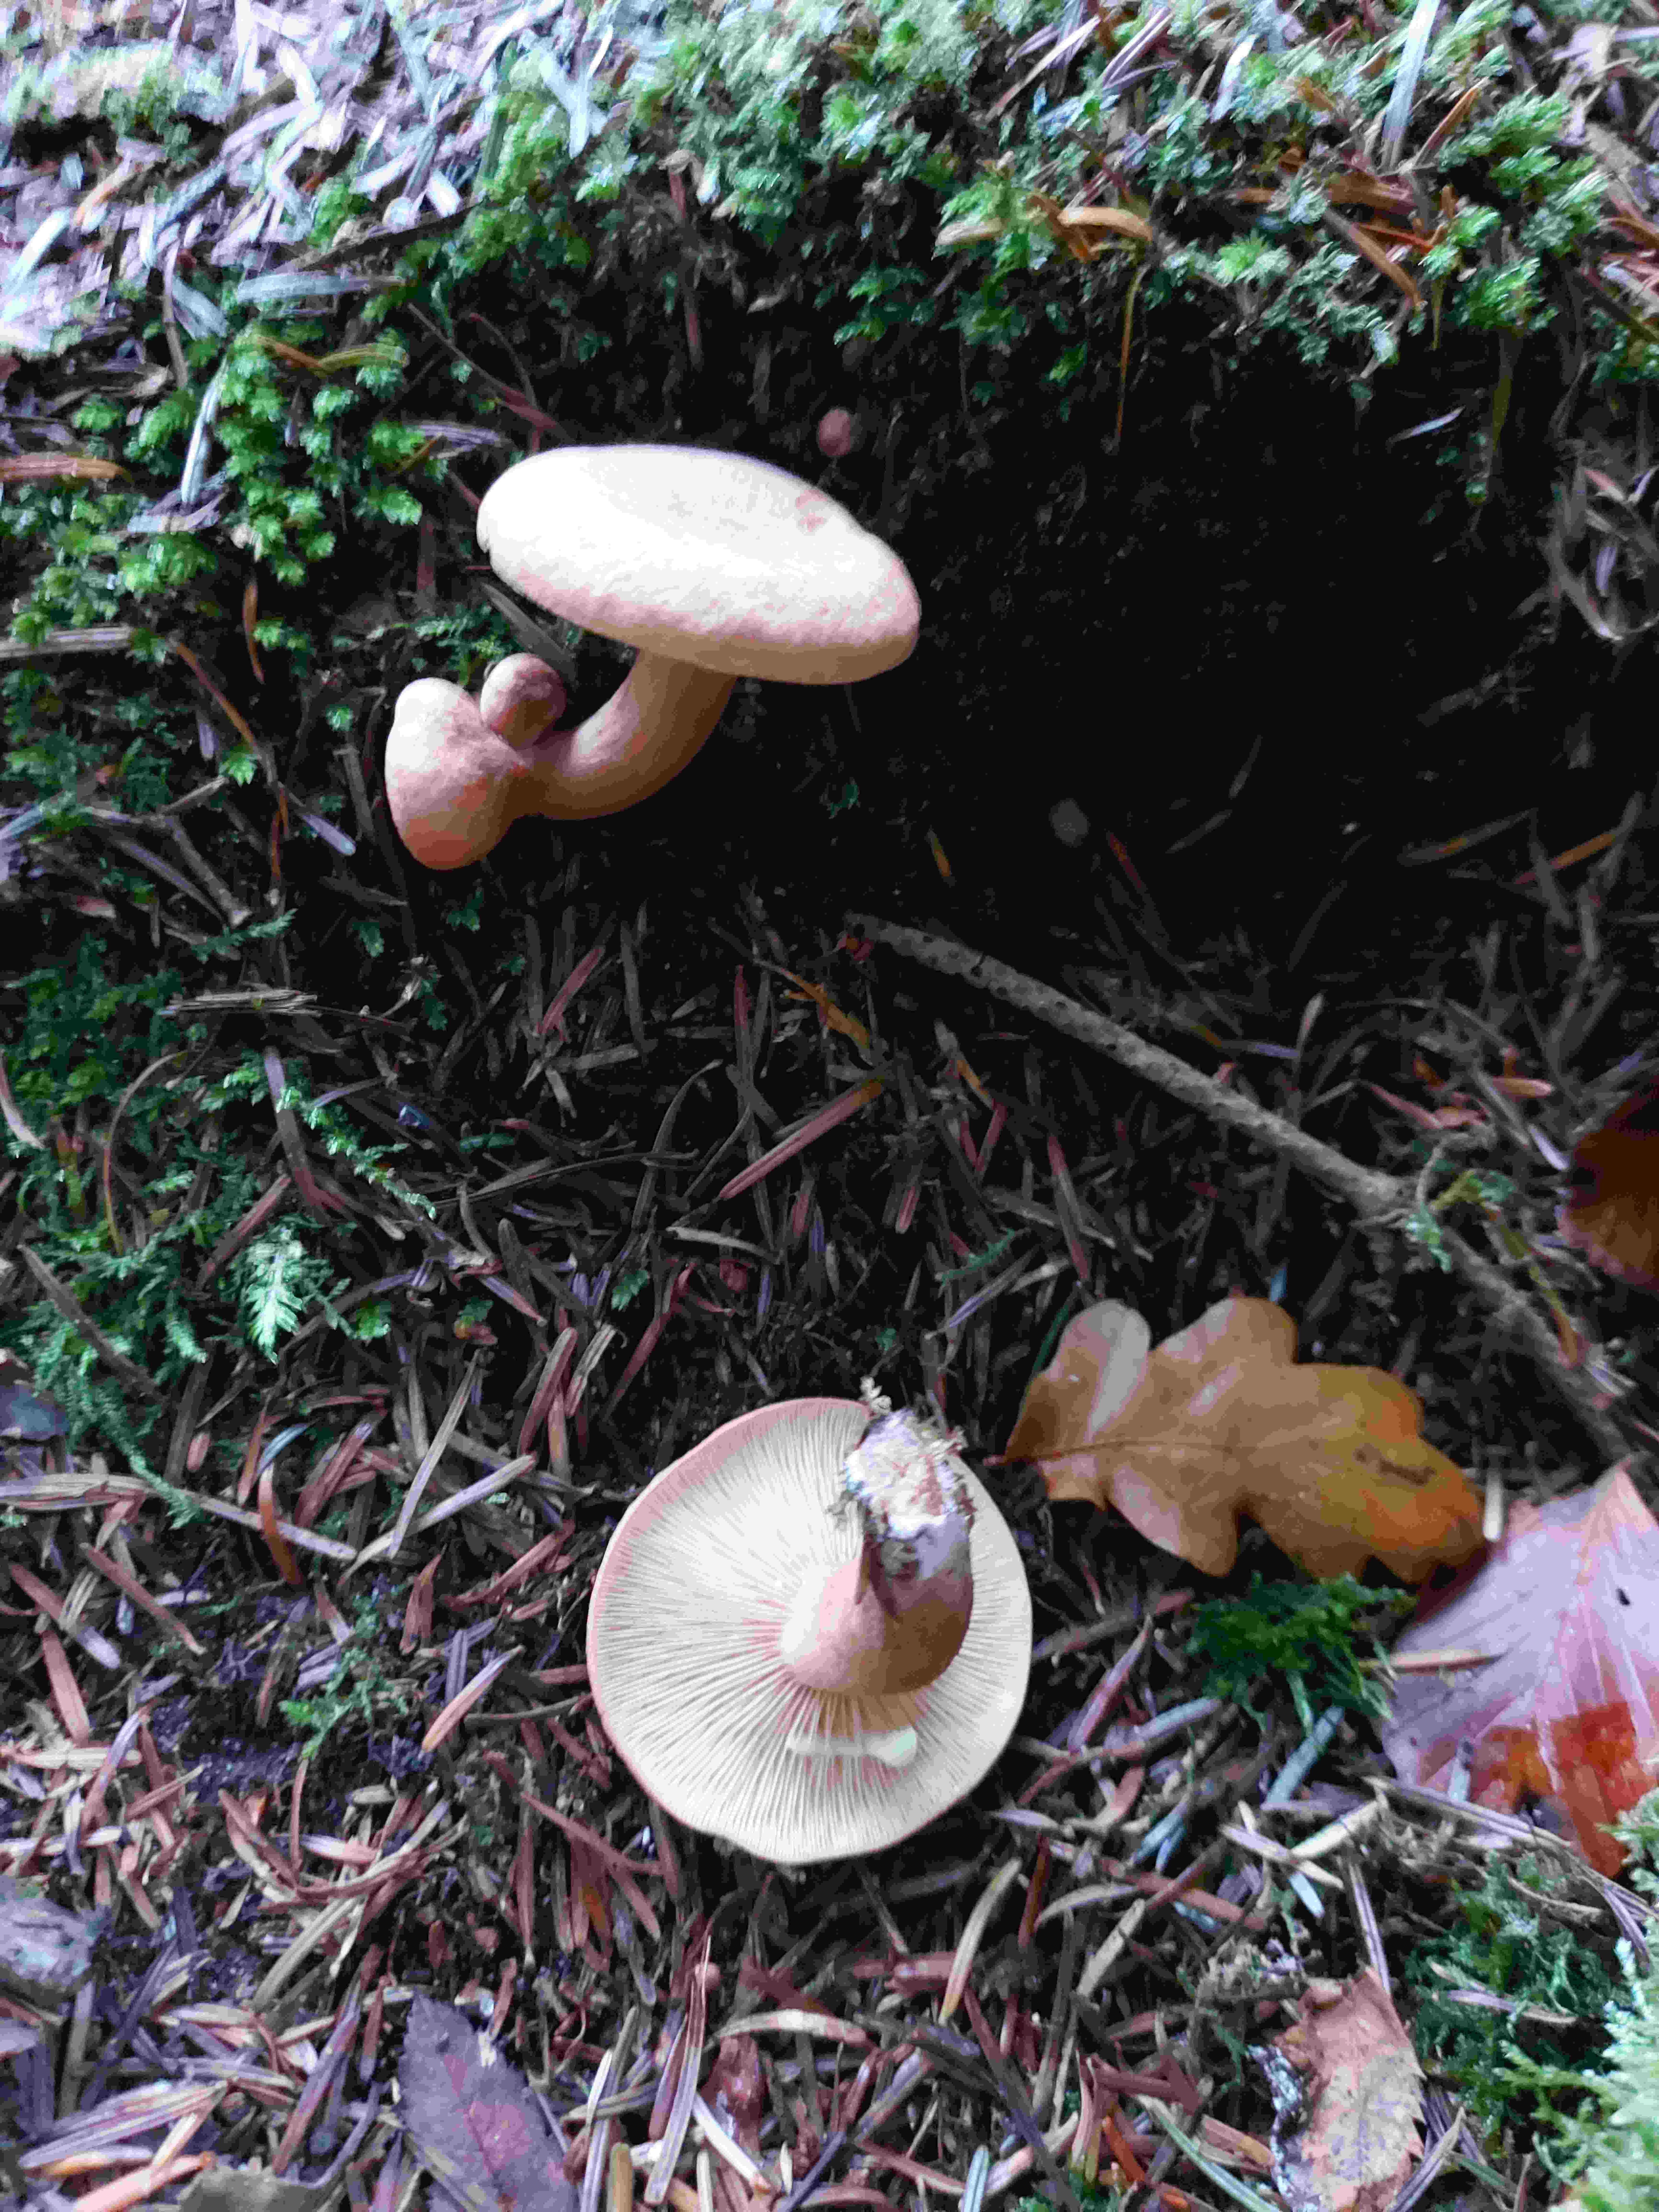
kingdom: Fungi
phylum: Basidiomycota
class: Agaricomycetes
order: Russulales
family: Russulaceae
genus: Lactarius
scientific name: Lactarius lilacinus
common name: lilla mælkehat
